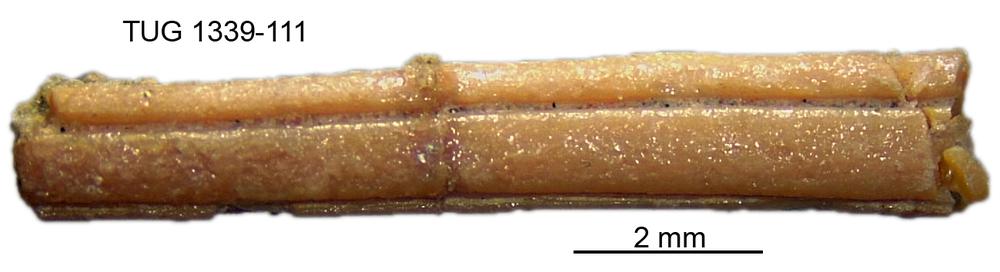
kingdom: Animalia
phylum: Chordata
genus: Haplacanthus
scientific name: Haplacanthus perseensis
